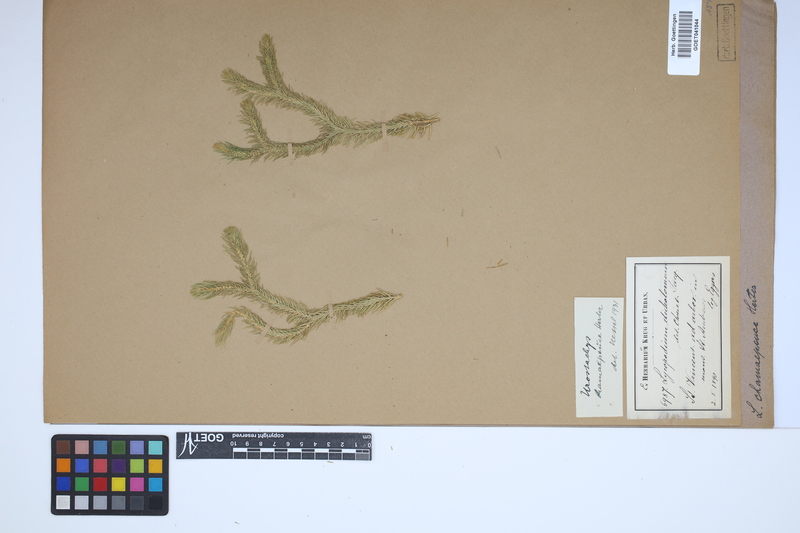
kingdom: Plantae
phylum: Tracheophyta
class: Lycopodiopsida
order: Lycopodiales
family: Lycopodiaceae
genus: Phlegmariurus
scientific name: Phlegmariurus dichotomus
